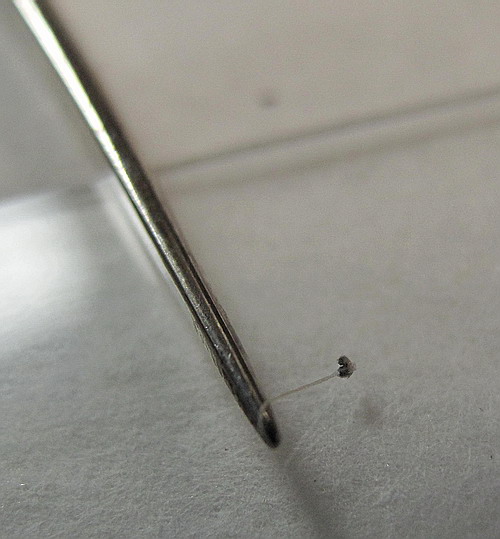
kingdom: Fungi
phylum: Basidiomycota
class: Agaricomycetes
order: Agaricales
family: Psathyrellaceae
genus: Coprinopsis
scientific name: Coprinopsis radiata
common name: lille gødnings-blækhat
